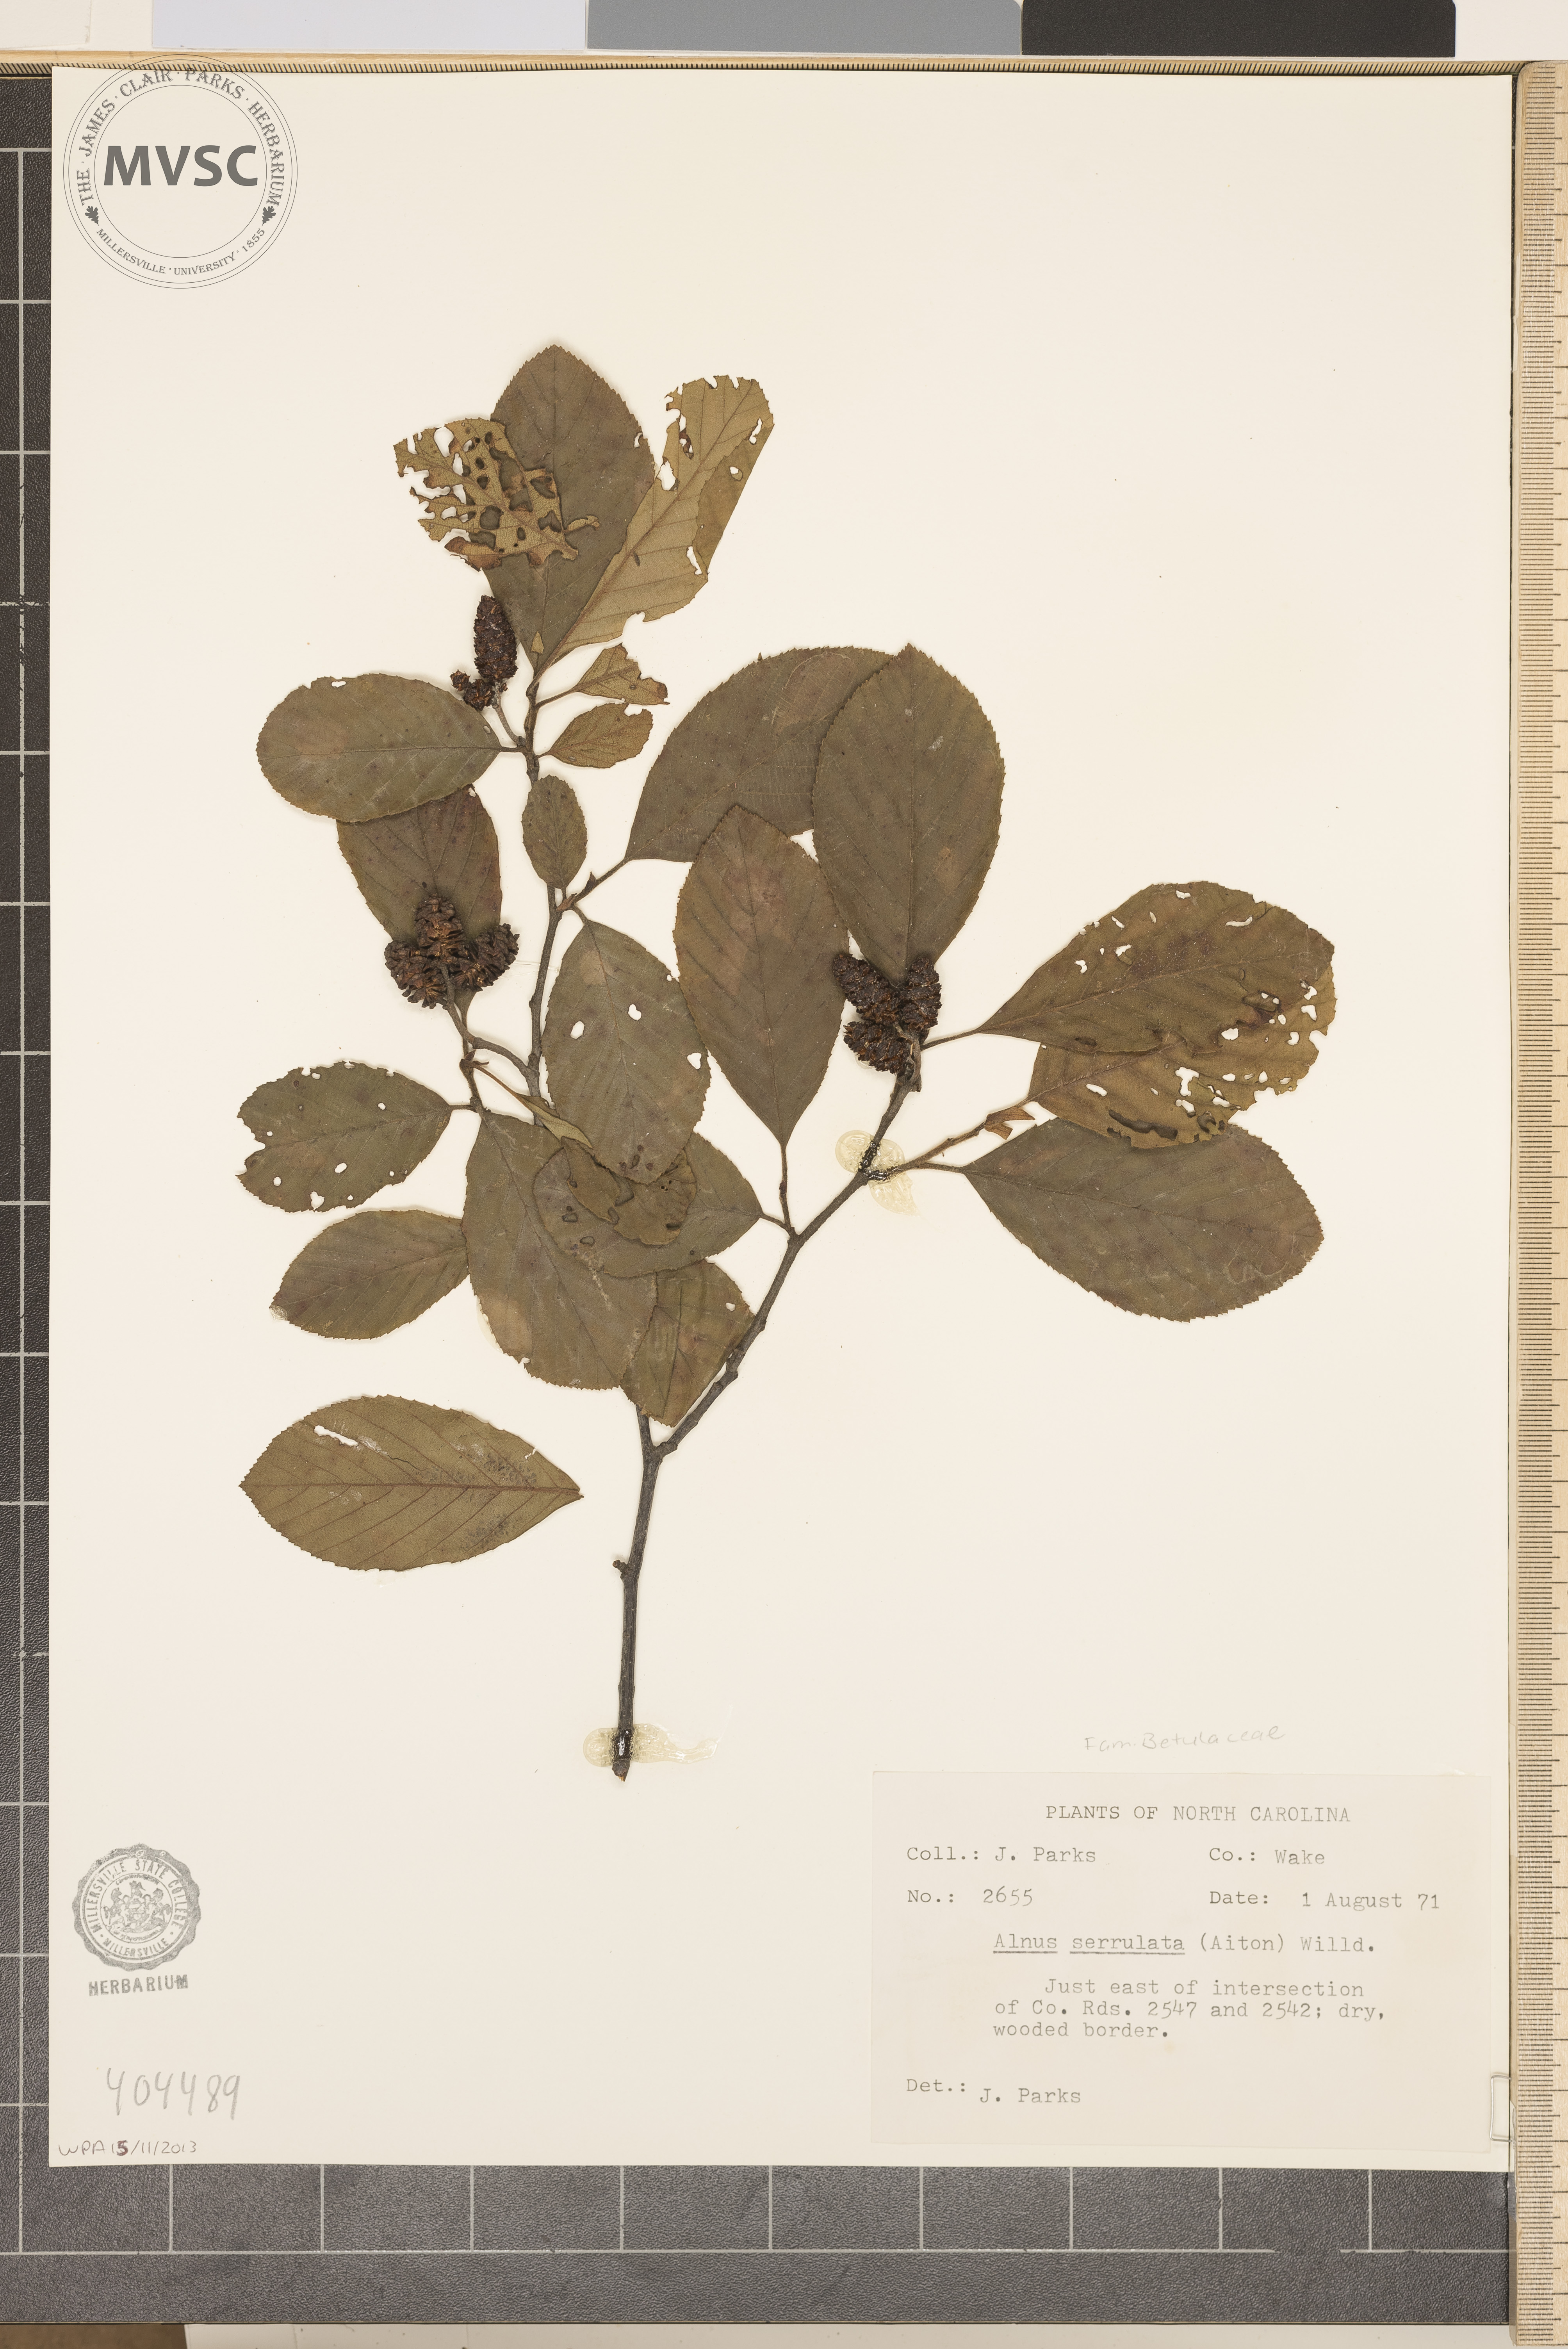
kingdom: Plantae
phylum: Tracheophyta
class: Magnoliopsida
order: Fagales
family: Betulaceae
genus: Alnus
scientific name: Alnus serrulata
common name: Hazel alder
